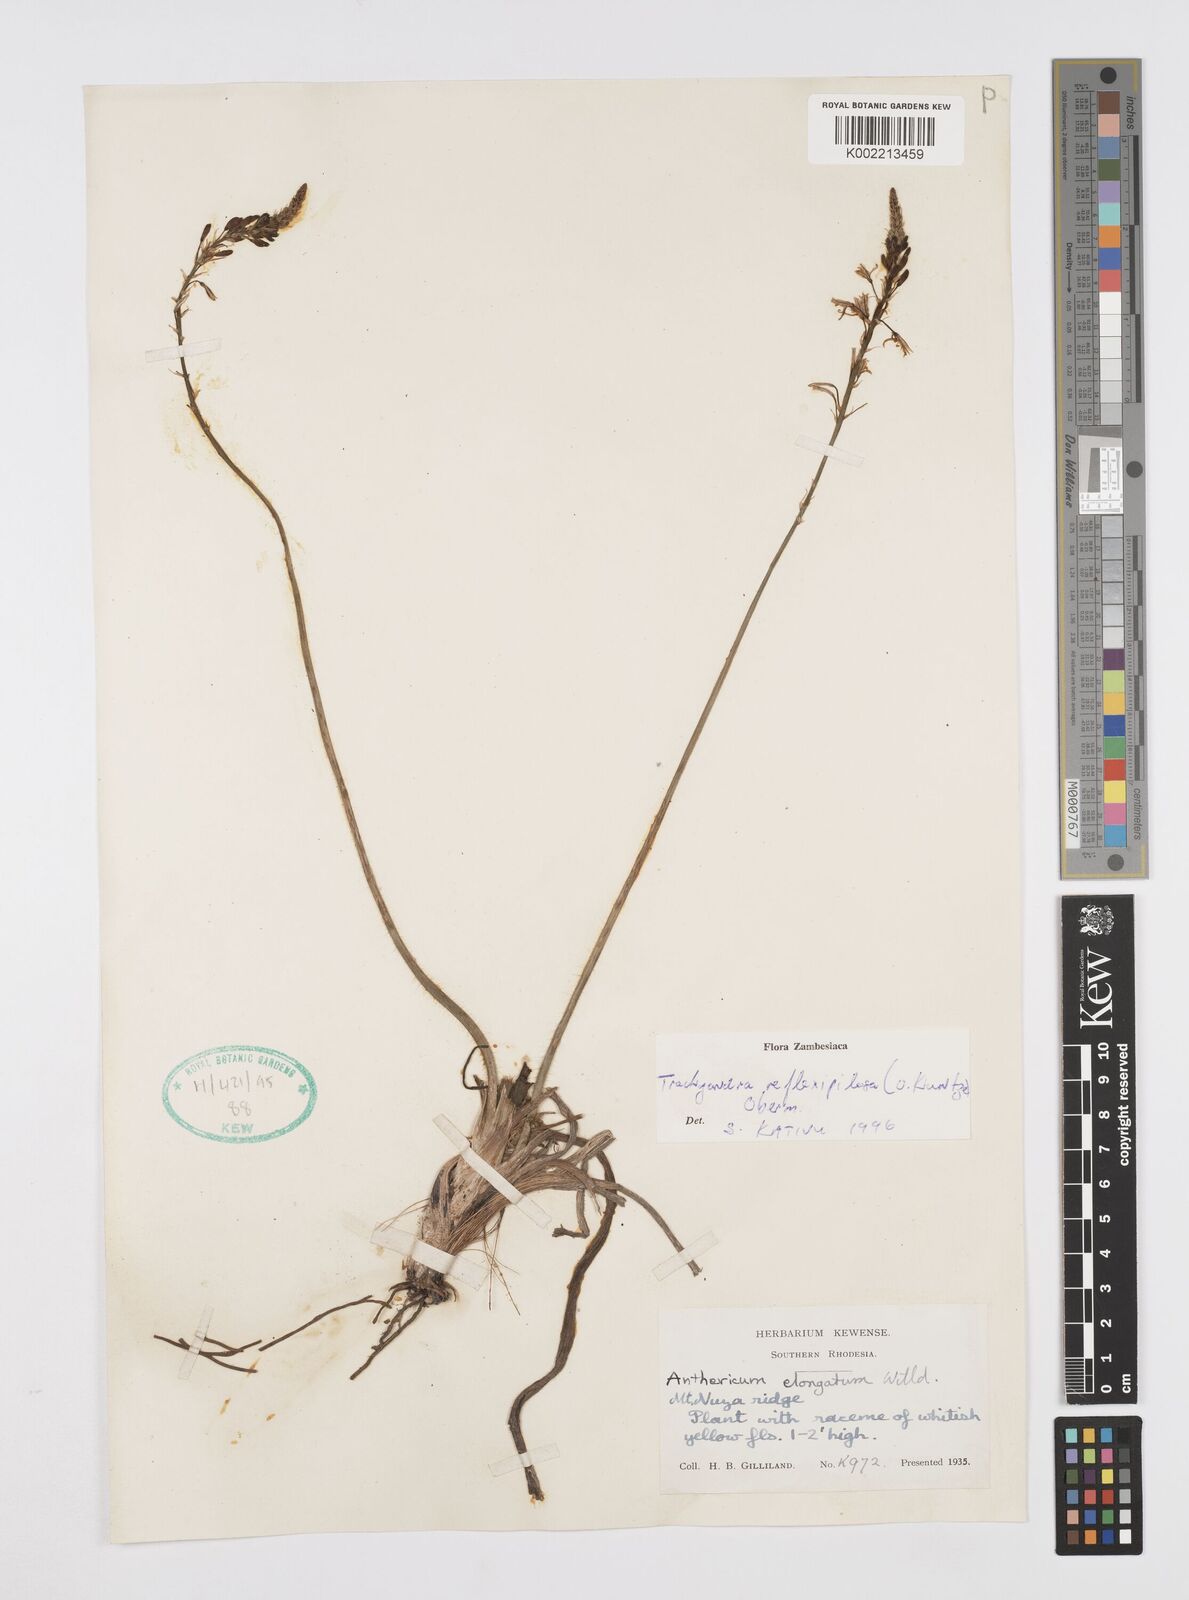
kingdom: Plantae
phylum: Tracheophyta
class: Liliopsida
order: Asparagales
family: Asphodelaceae
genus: Trachyandra
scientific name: Trachyandra saltii
